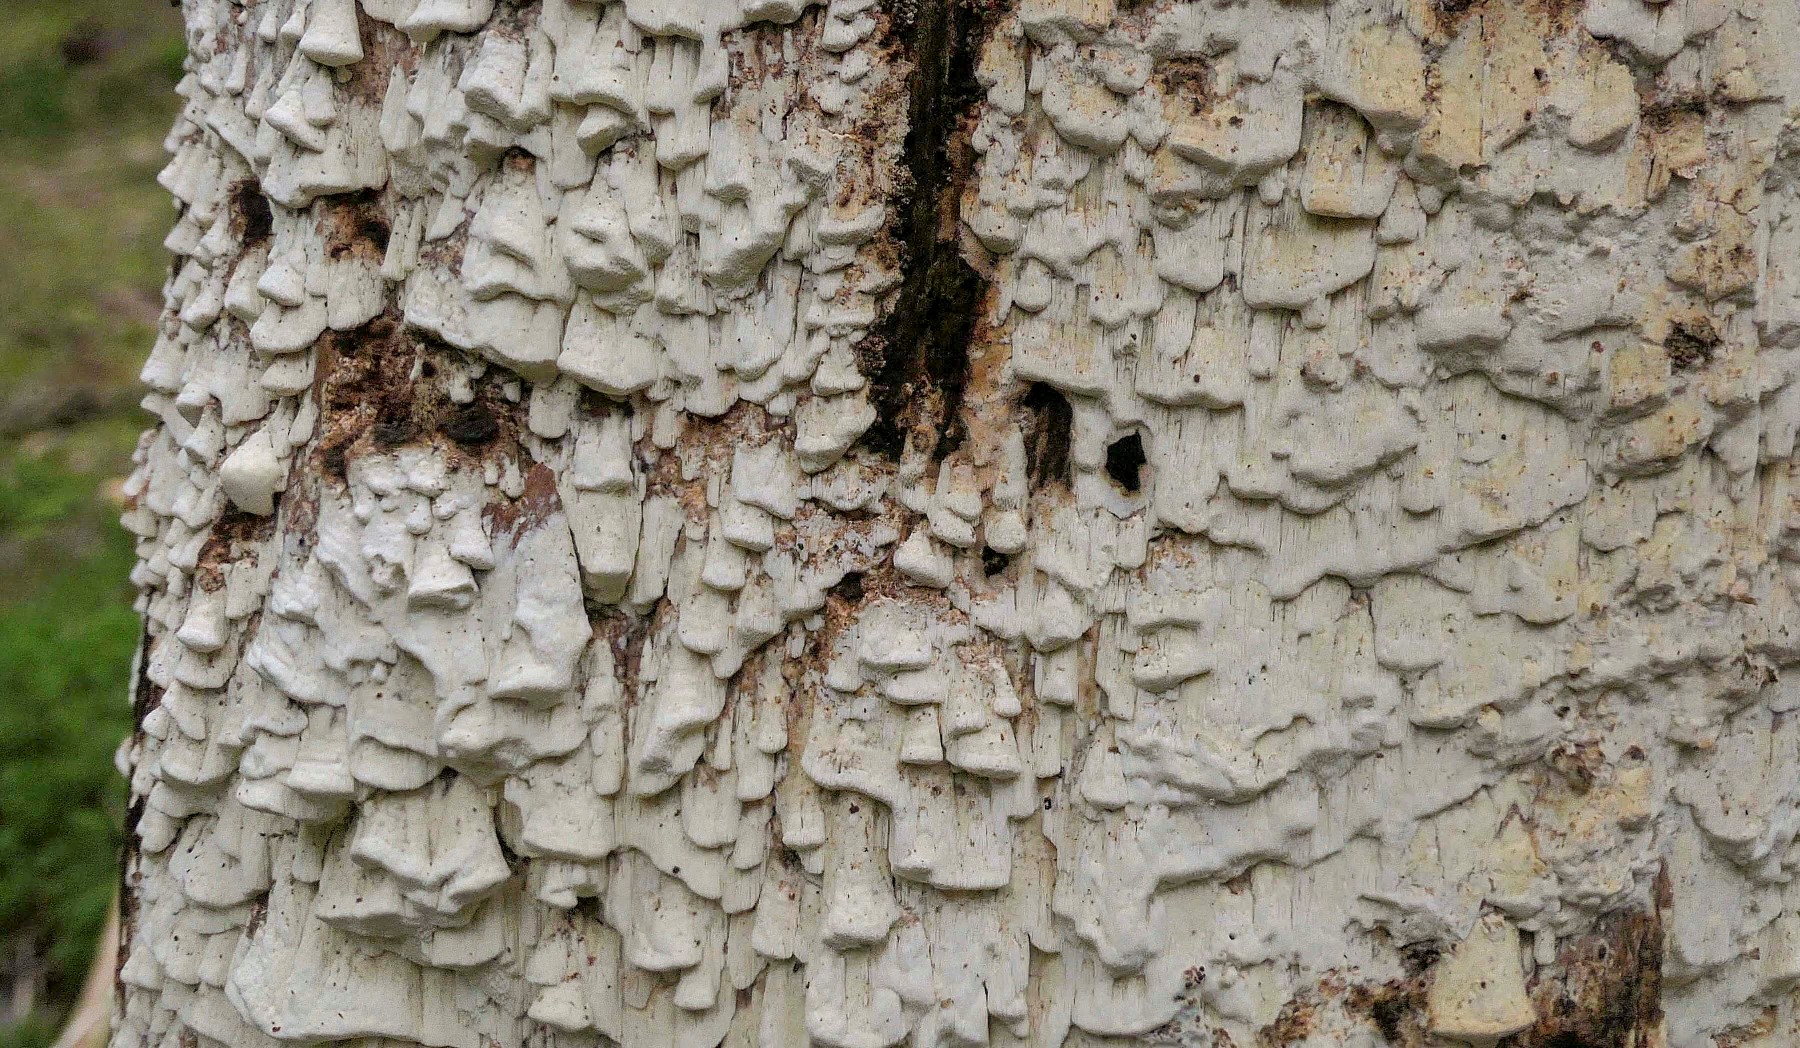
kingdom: Fungi
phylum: Basidiomycota
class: Agaricomycetes
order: Polyporales
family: Fomitopsidaceae
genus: Daedalea
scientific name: Daedalea xantha
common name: gul sejporesvamp
